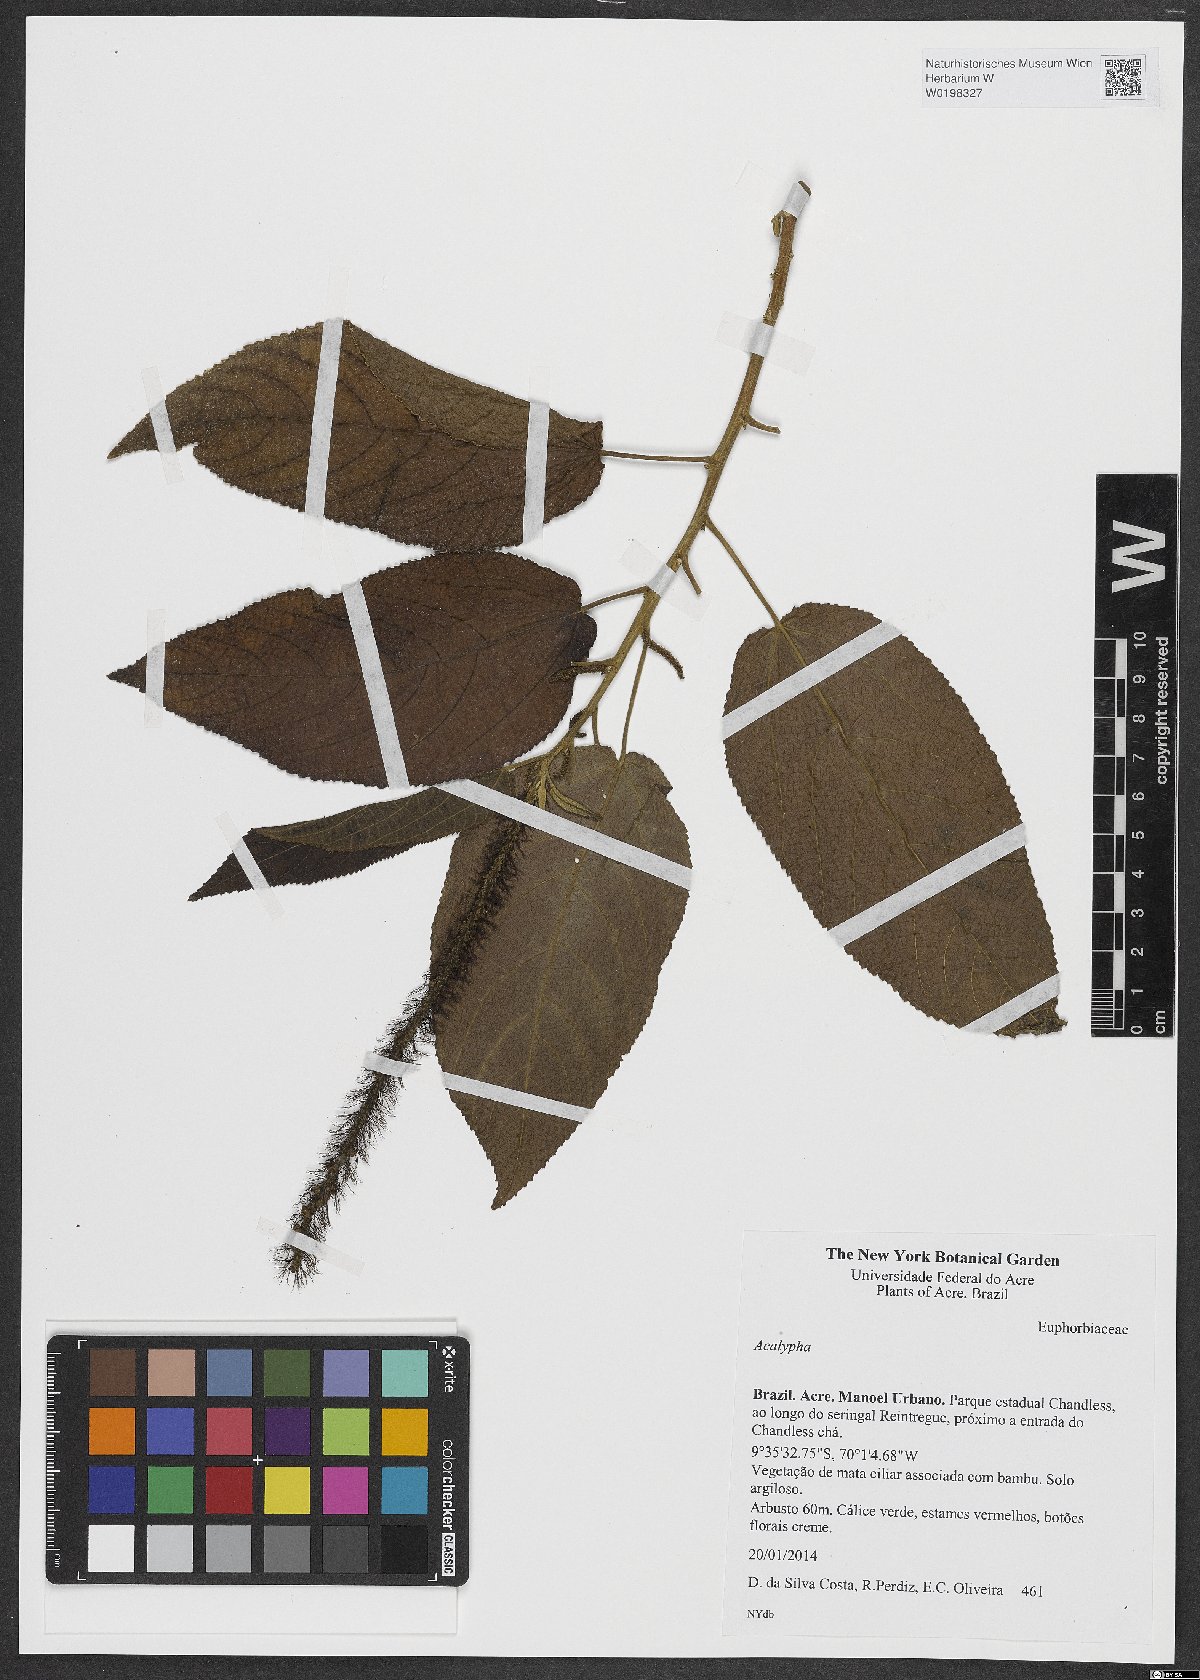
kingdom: Plantae
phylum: Tracheophyta
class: Magnoliopsida
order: Malpighiales
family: Euphorbiaceae
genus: Acalypha
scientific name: Acalypha
